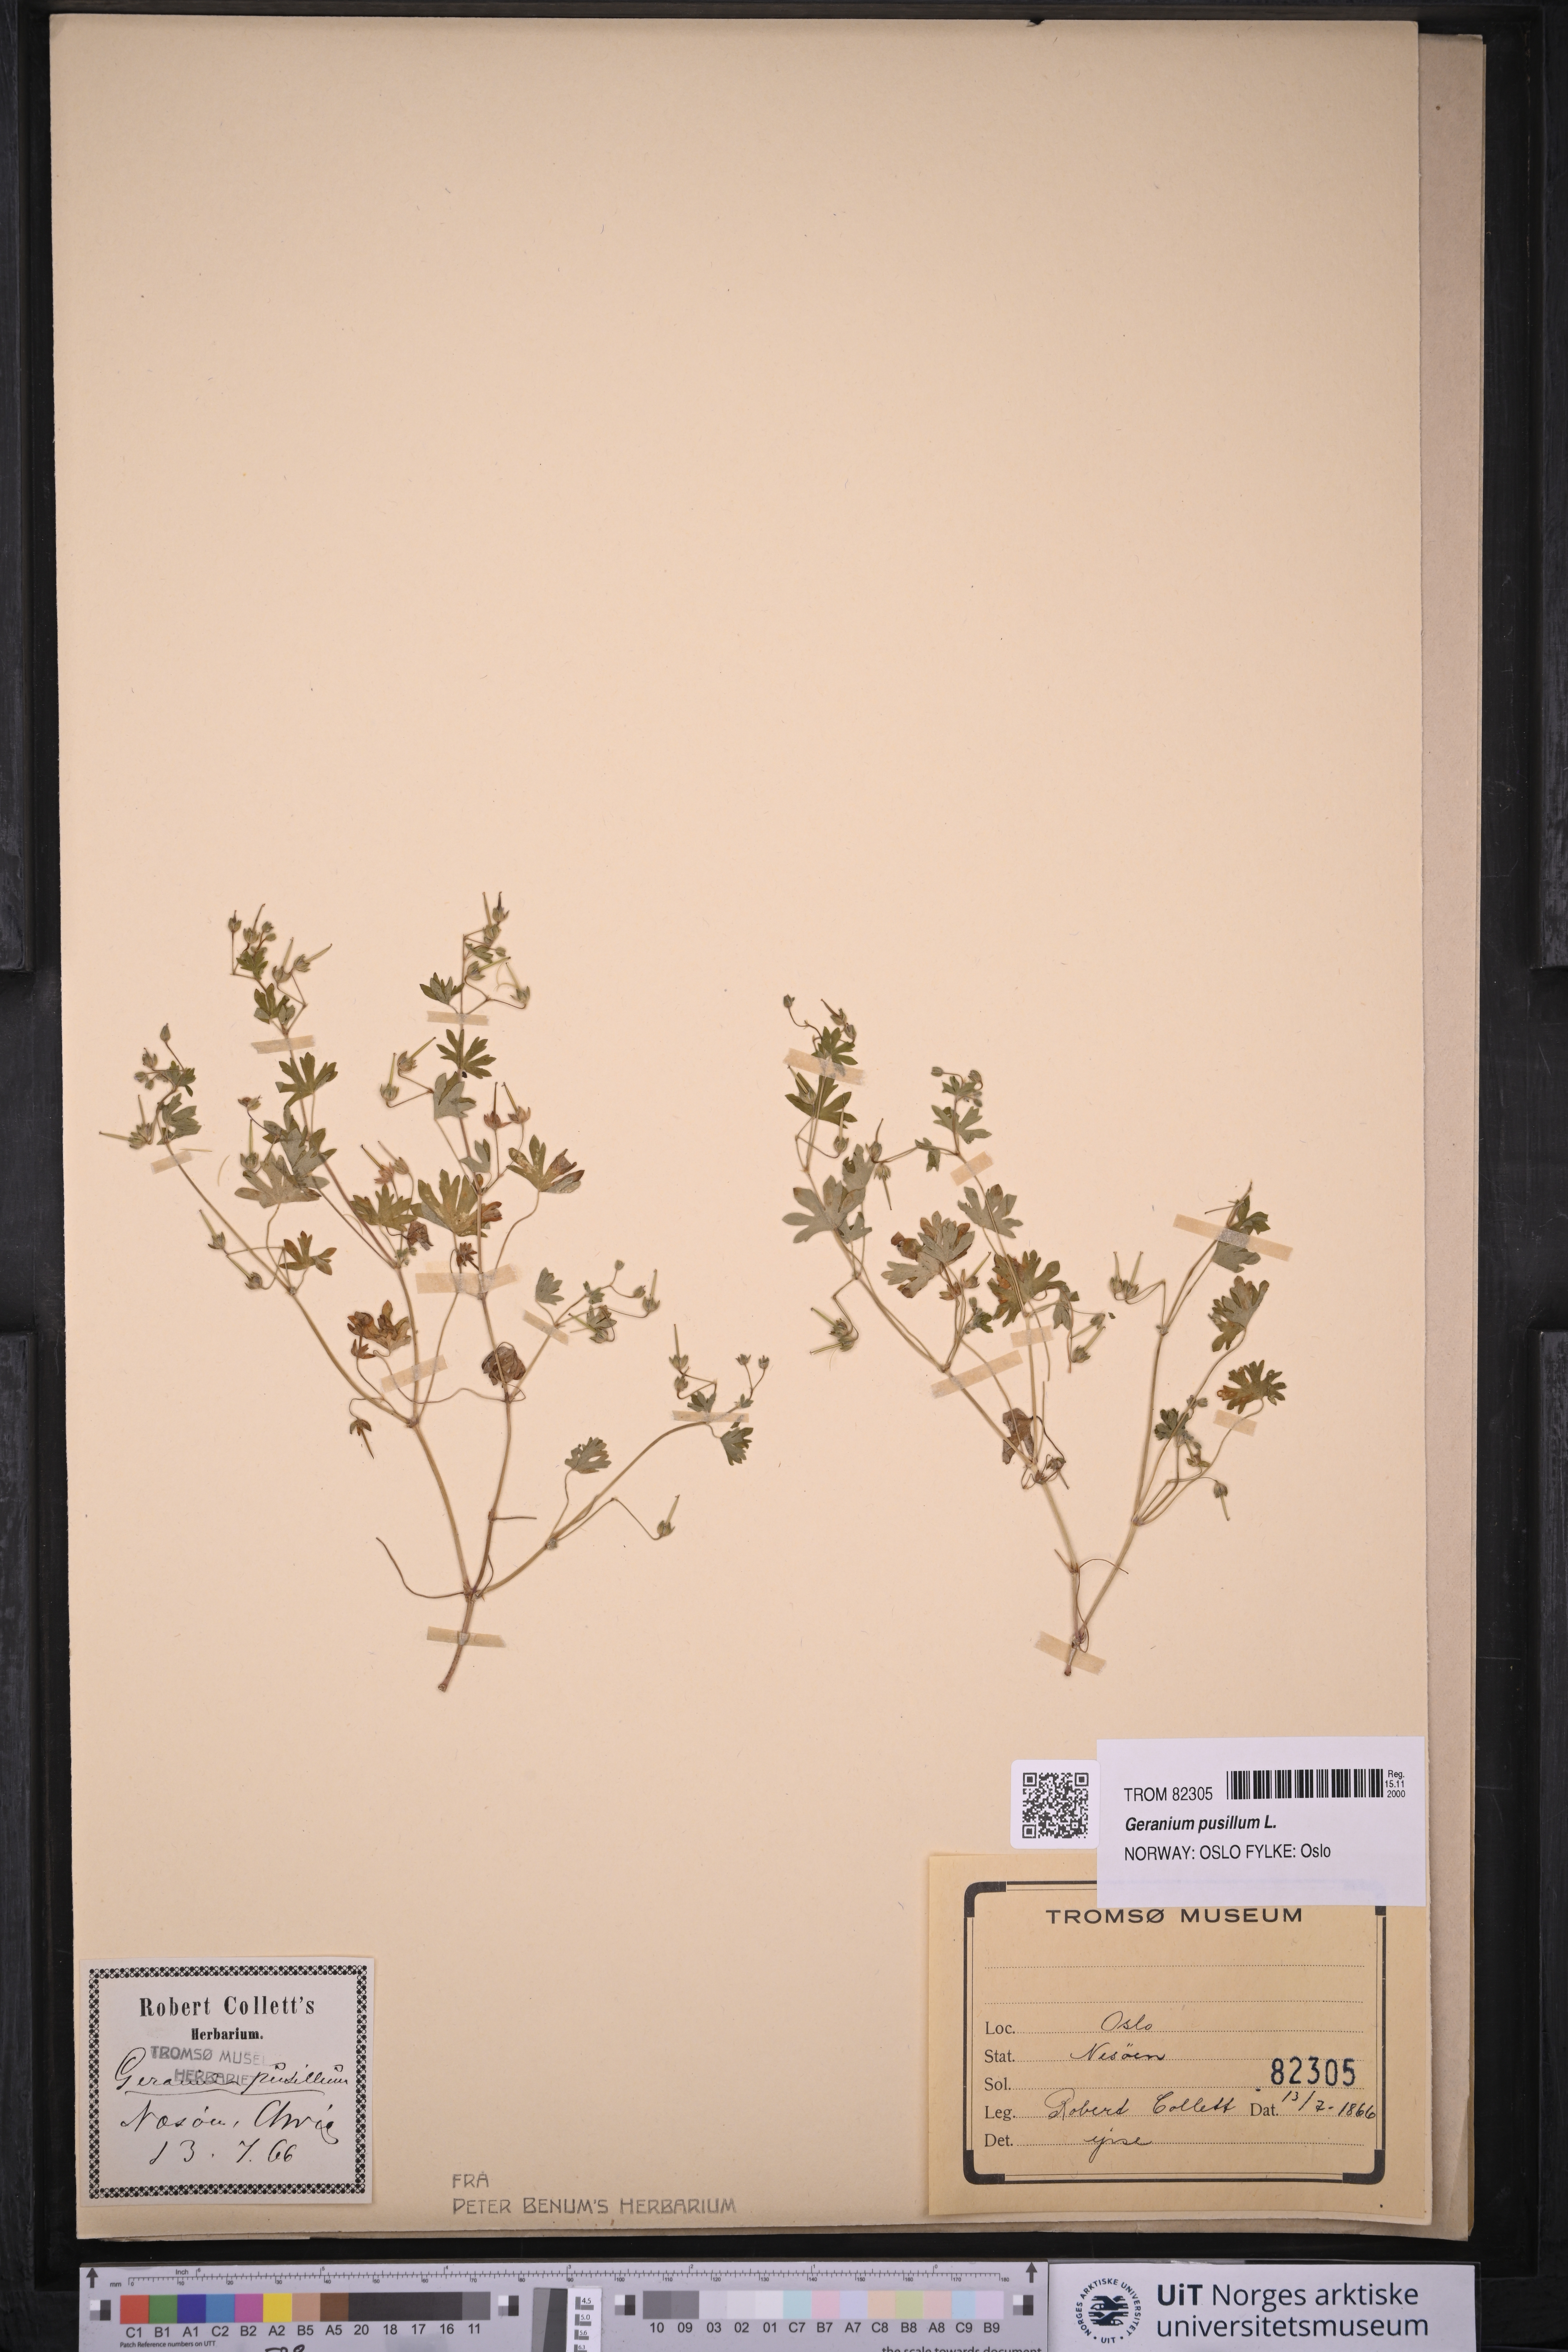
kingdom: Plantae
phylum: Tracheophyta
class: Magnoliopsida
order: Geraniales
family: Geraniaceae
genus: Geranium
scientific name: Geranium pusillum
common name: Small geranium
